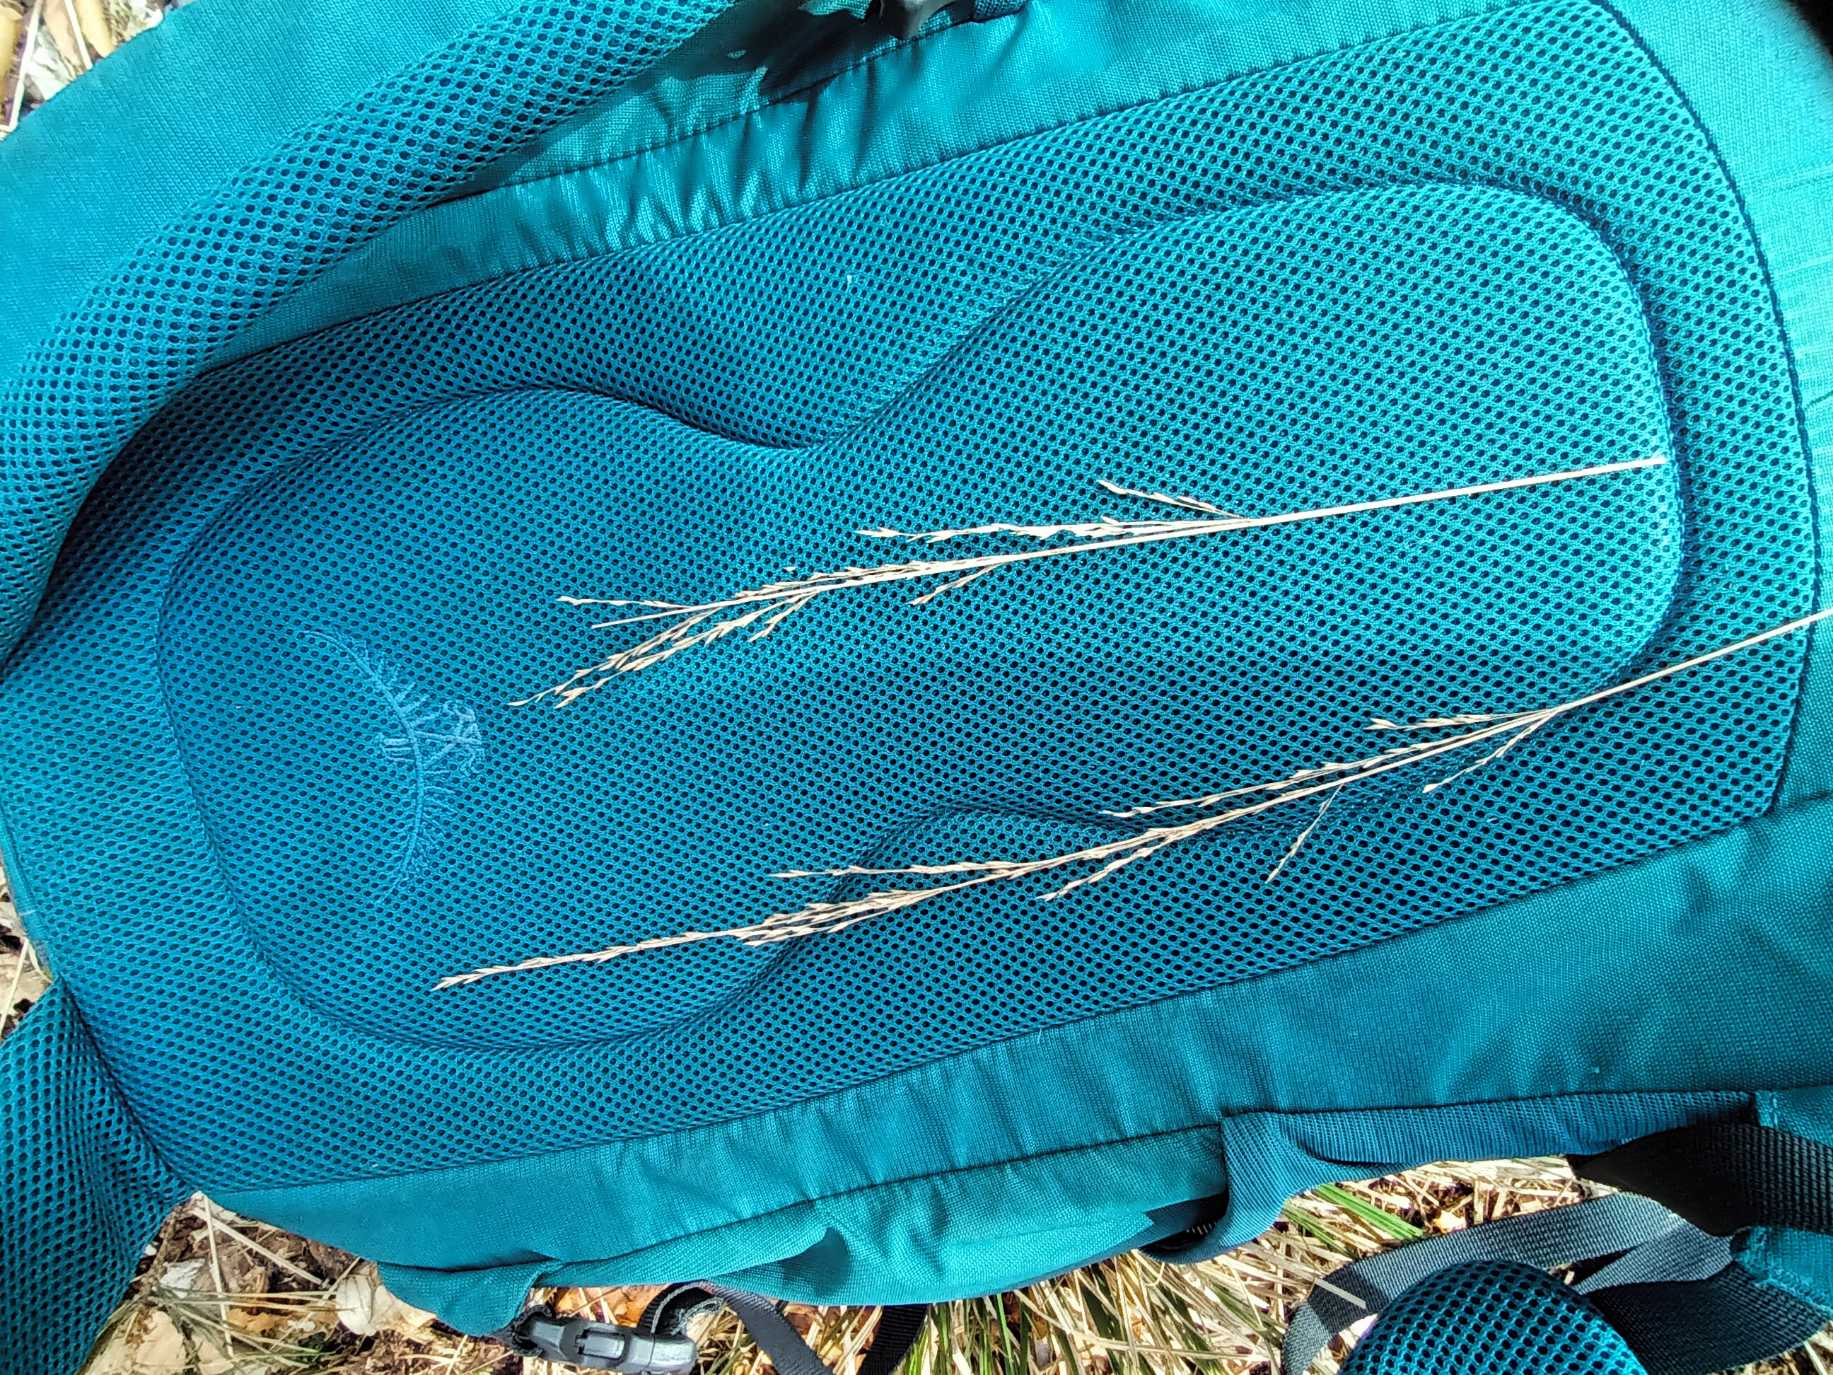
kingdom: Plantae
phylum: Tracheophyta
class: Liliopsida
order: Poales
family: Poaceae
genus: Molinia
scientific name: Molinia caerulea
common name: Blåtop
